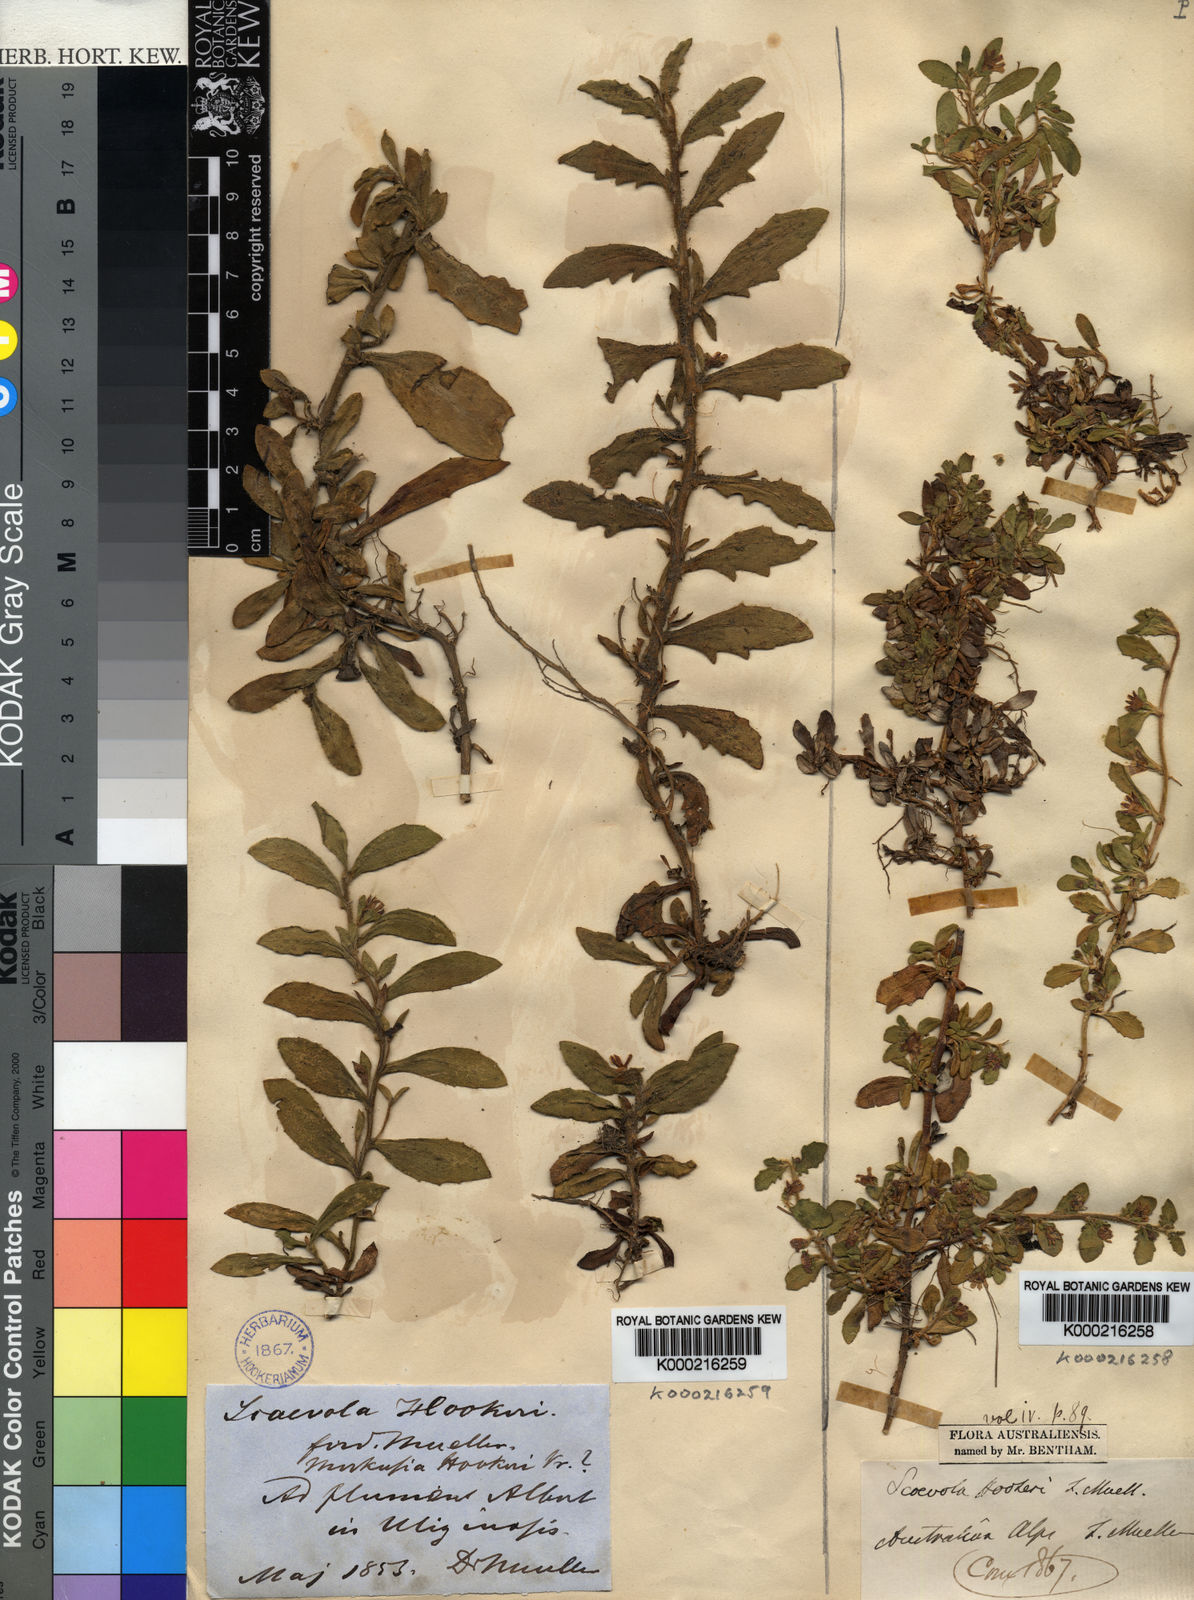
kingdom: Plantae
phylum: Tracheophyta
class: Magnoliopsida
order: Asterales
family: Goodeniaceae
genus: Scaevola
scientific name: Scaevola hookeri
